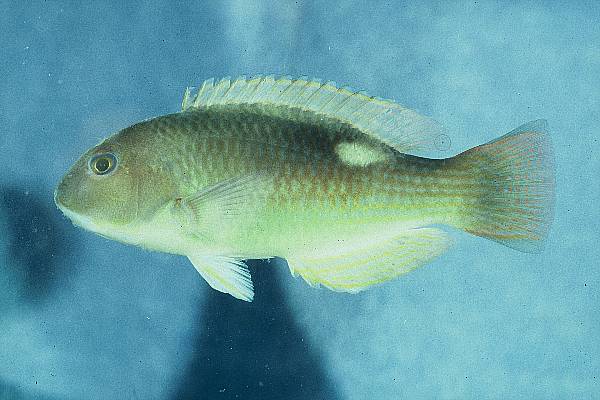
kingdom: Animalia
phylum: Chordata
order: Perciformes
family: Labridae
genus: Choerodon
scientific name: Choerodon cyanodus
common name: Blue tuskfish
